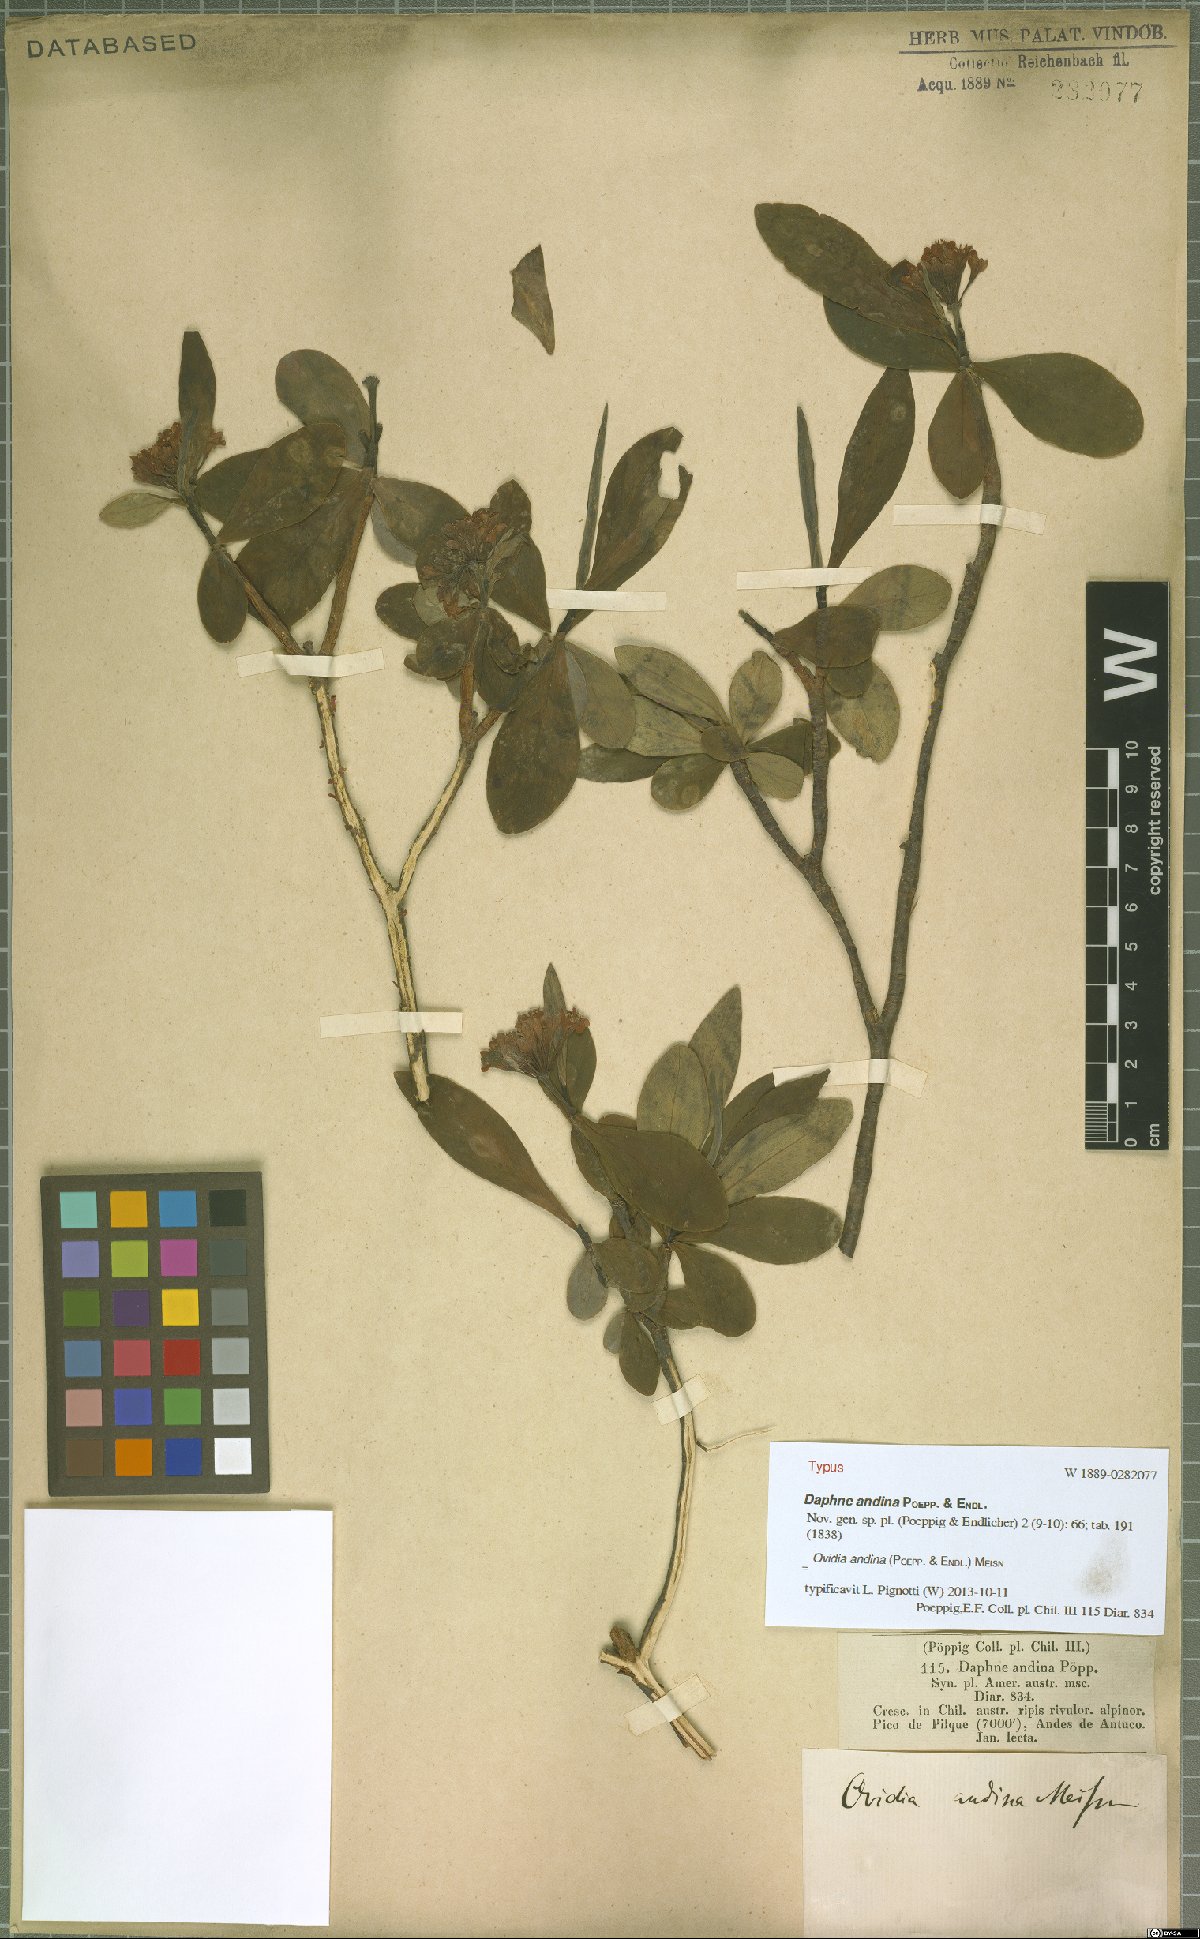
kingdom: Plantae
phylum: Tracheophyta
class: Magnoliopsida
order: Malvales
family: Thymelaeaceae
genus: Ovidia
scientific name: Ovidia andina
